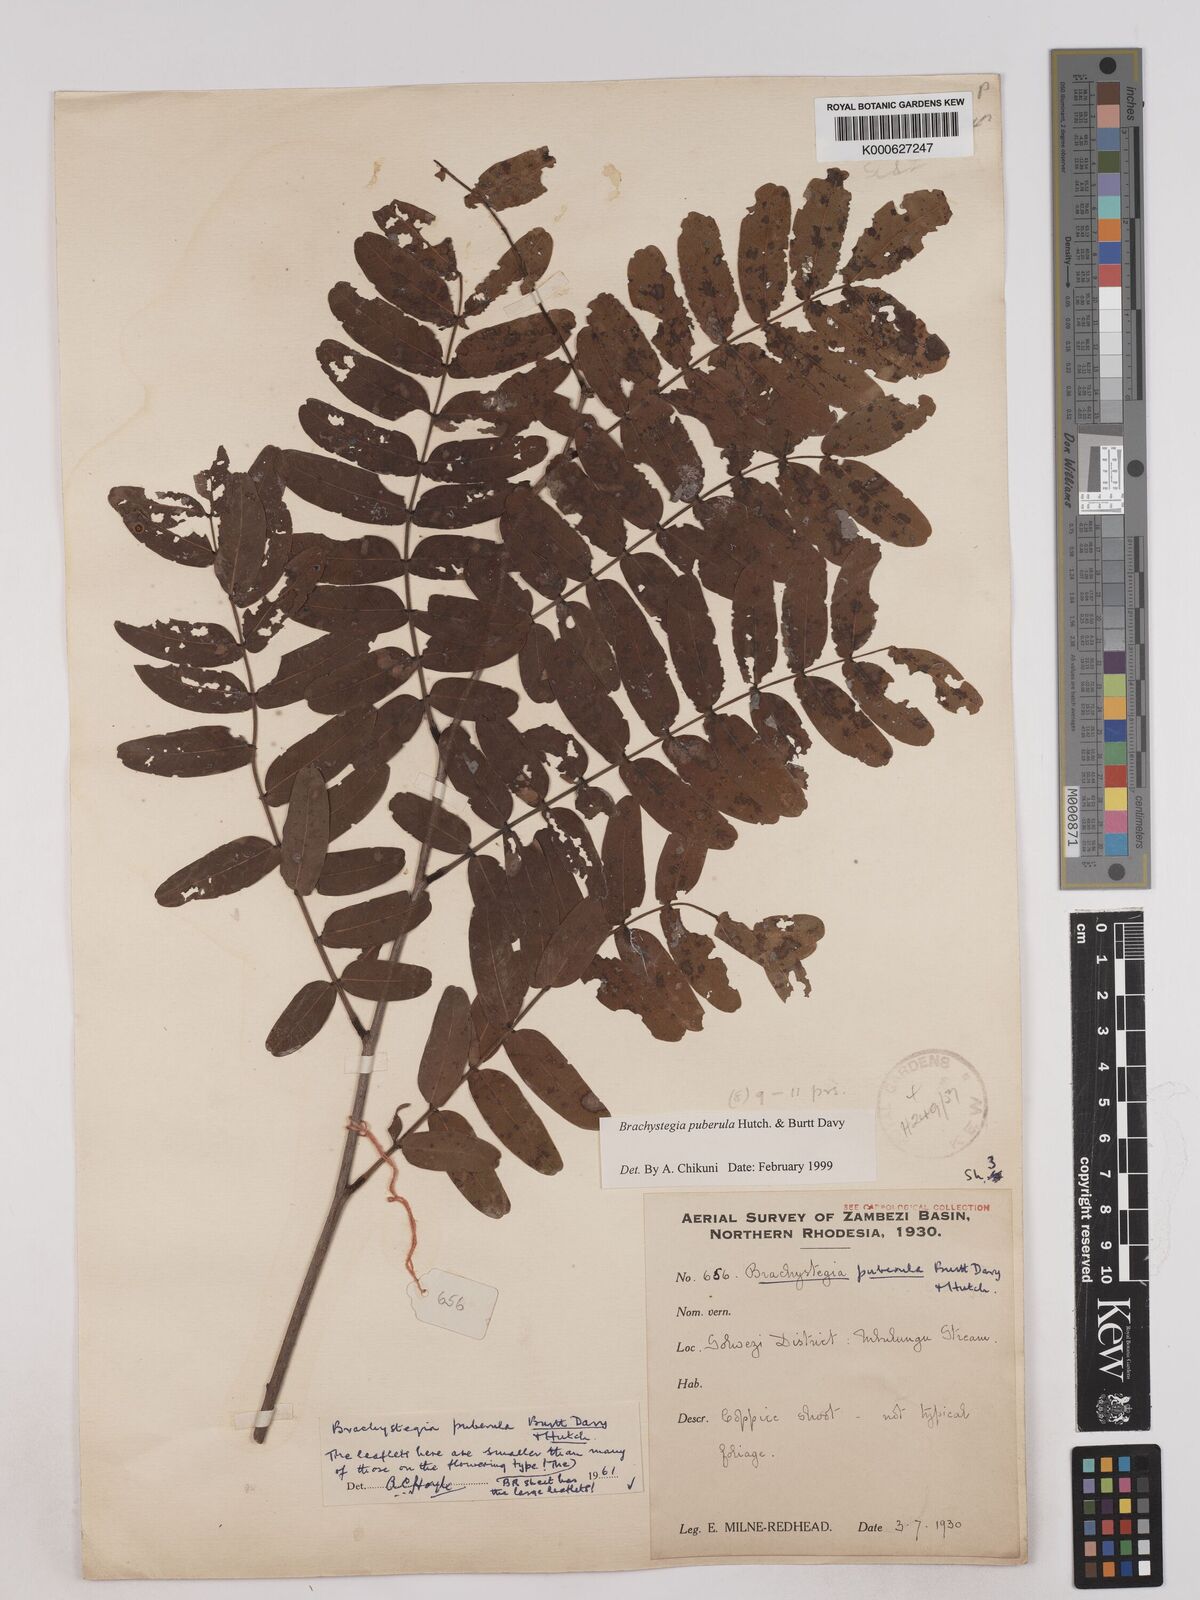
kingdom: Plantae
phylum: Tracheophyta
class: Magnoliopsida
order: Fabales
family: Fabaceae
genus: Brachystegia
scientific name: Brachystegia puberula
